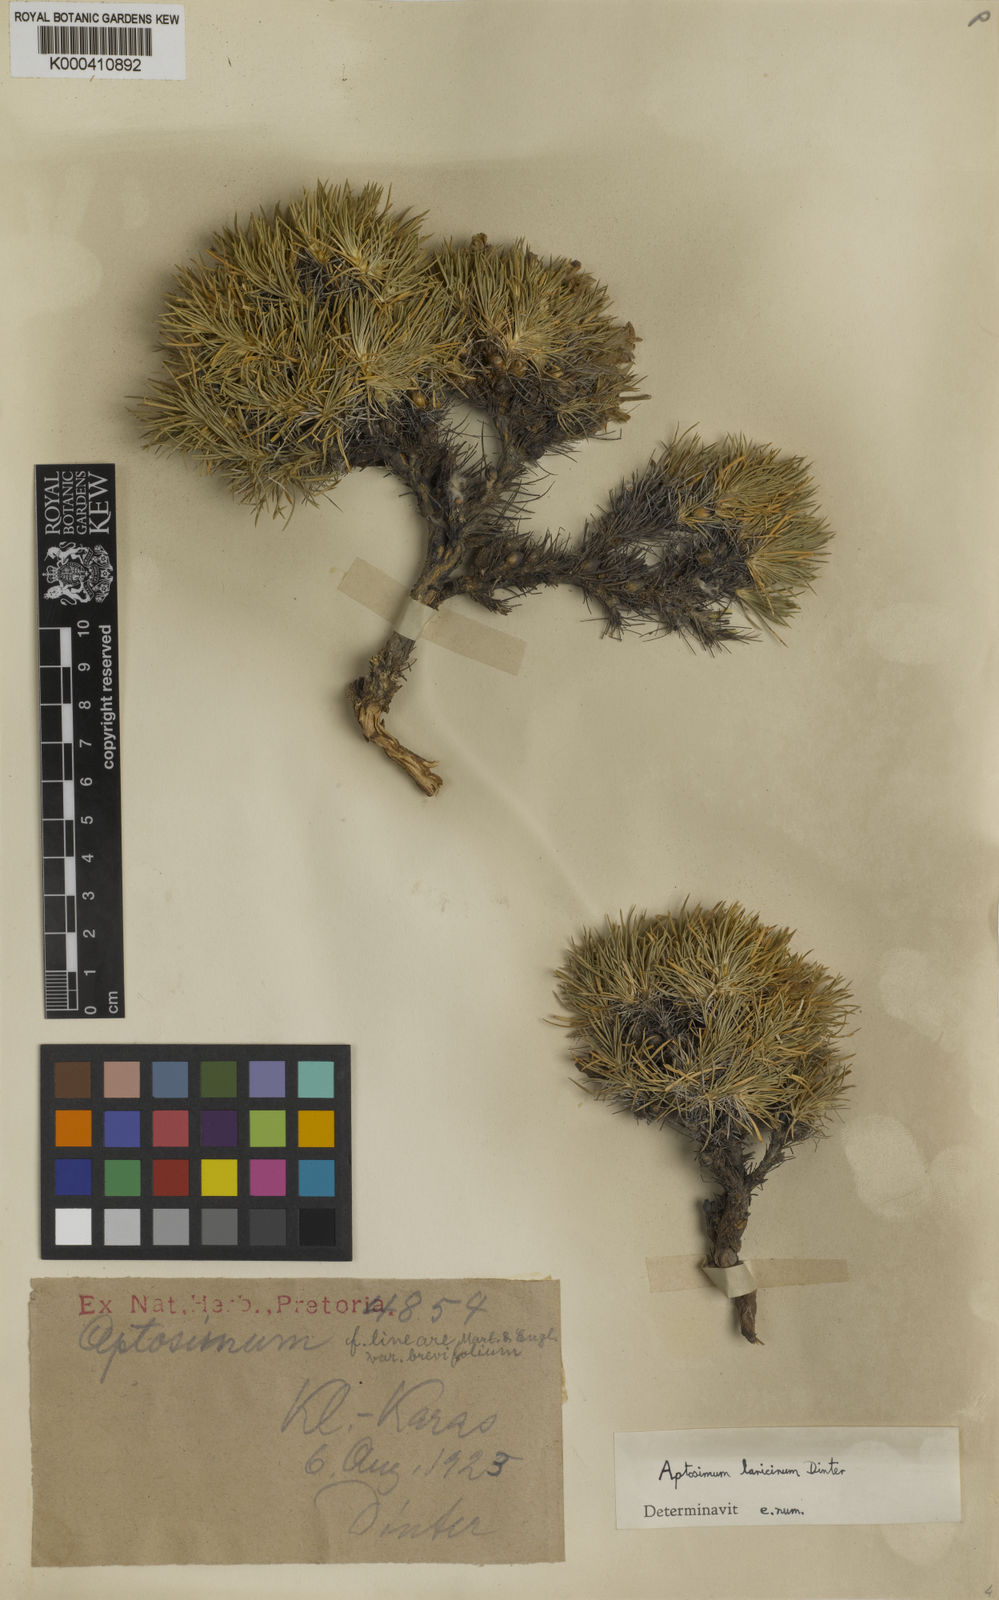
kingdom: Plantae
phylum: Tracheophyta
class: Magnoliopsida
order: Lamiales
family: Scrophulariaceae
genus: Aptosimum
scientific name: Aptosimum spinescens
